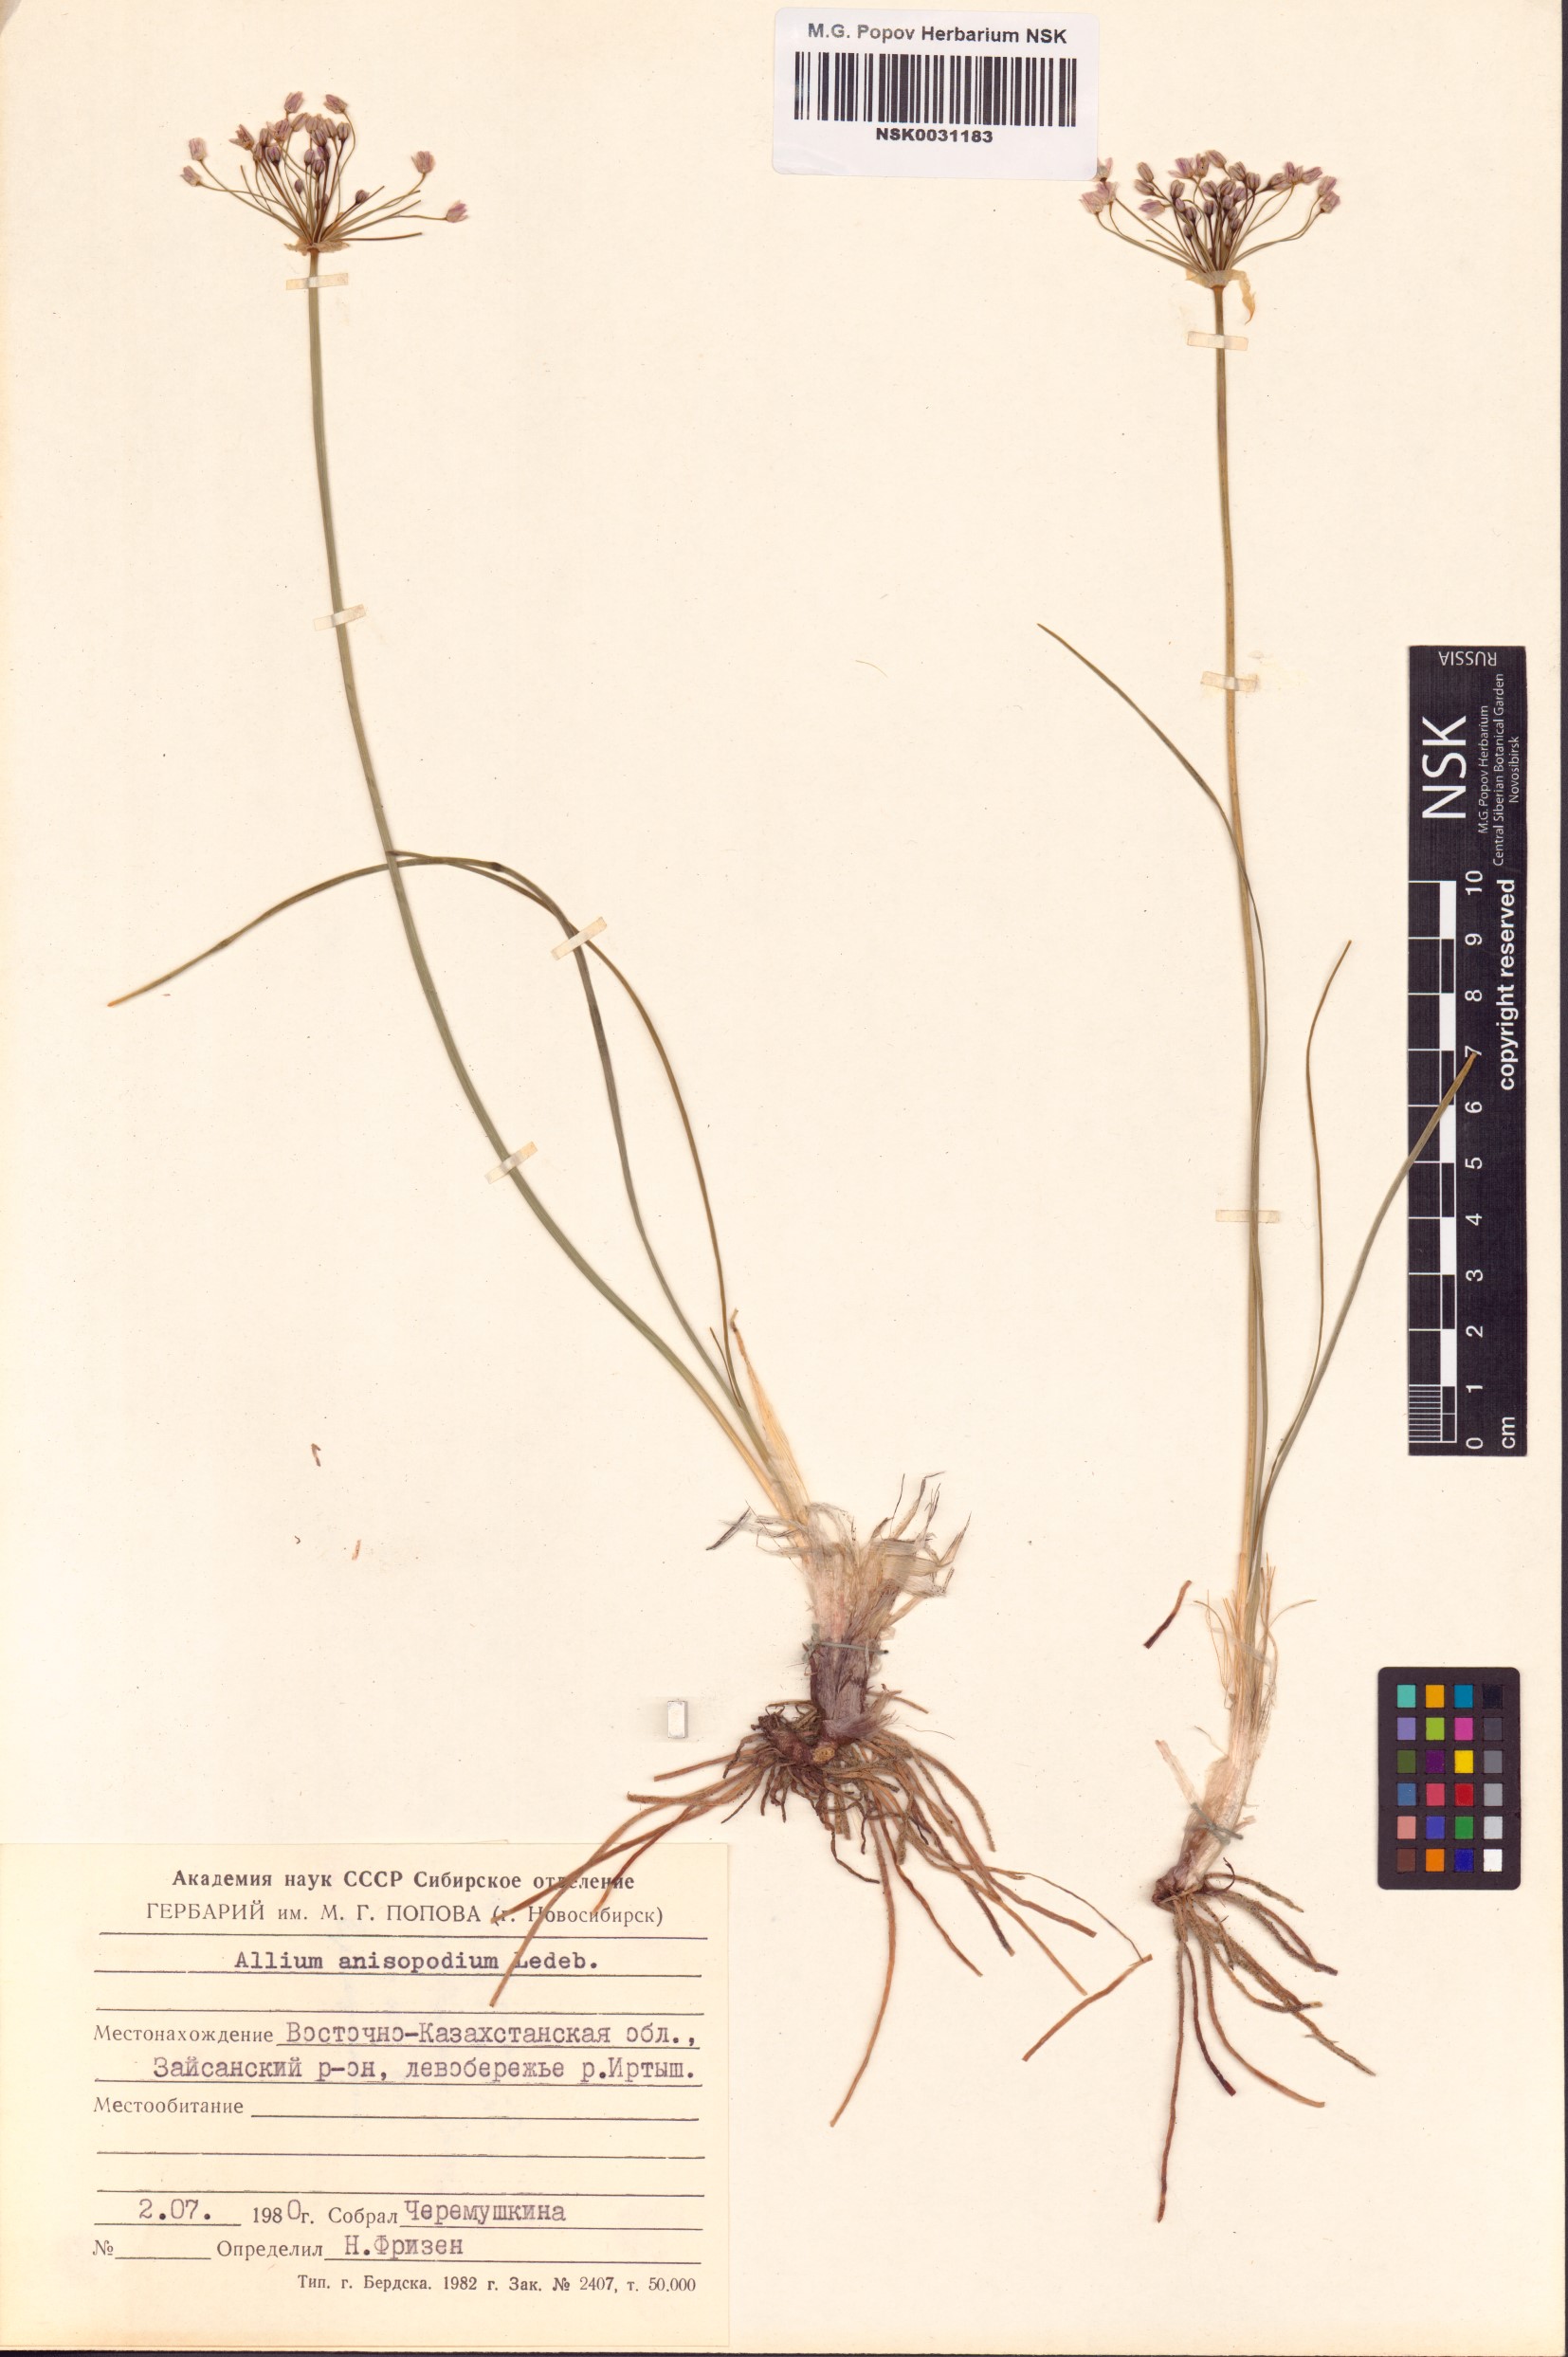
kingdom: Plantae
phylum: Tracheophyta
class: Liliopsida
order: Asparagales
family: Amaryllidaceae
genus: Allium
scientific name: Allium anisopodium
